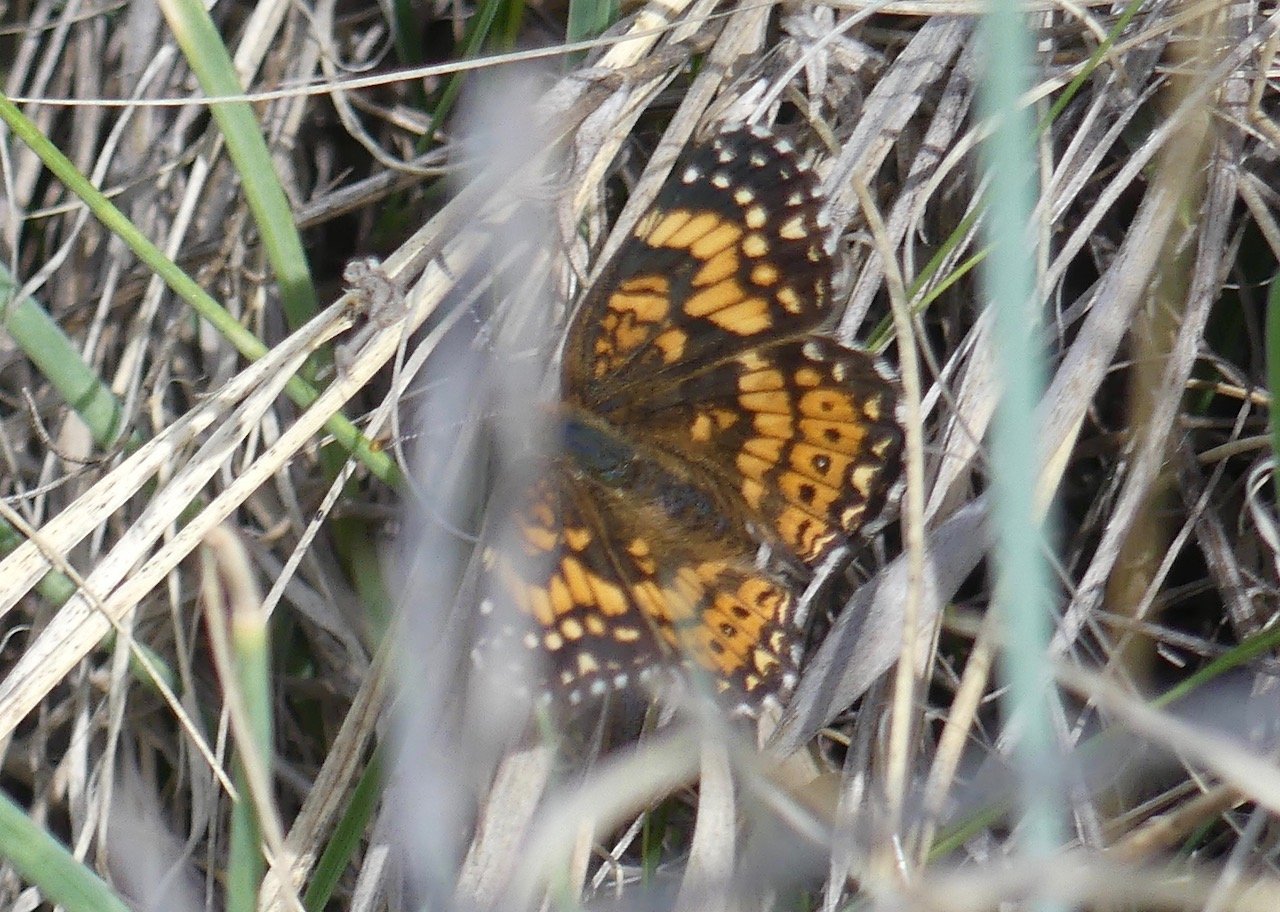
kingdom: Animalia
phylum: Arthropoda
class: Insecta
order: Lepidoptera
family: Nymphalidae
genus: Chlosyne
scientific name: Chlosyne gorgone
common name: Gorgone Checkerspot
